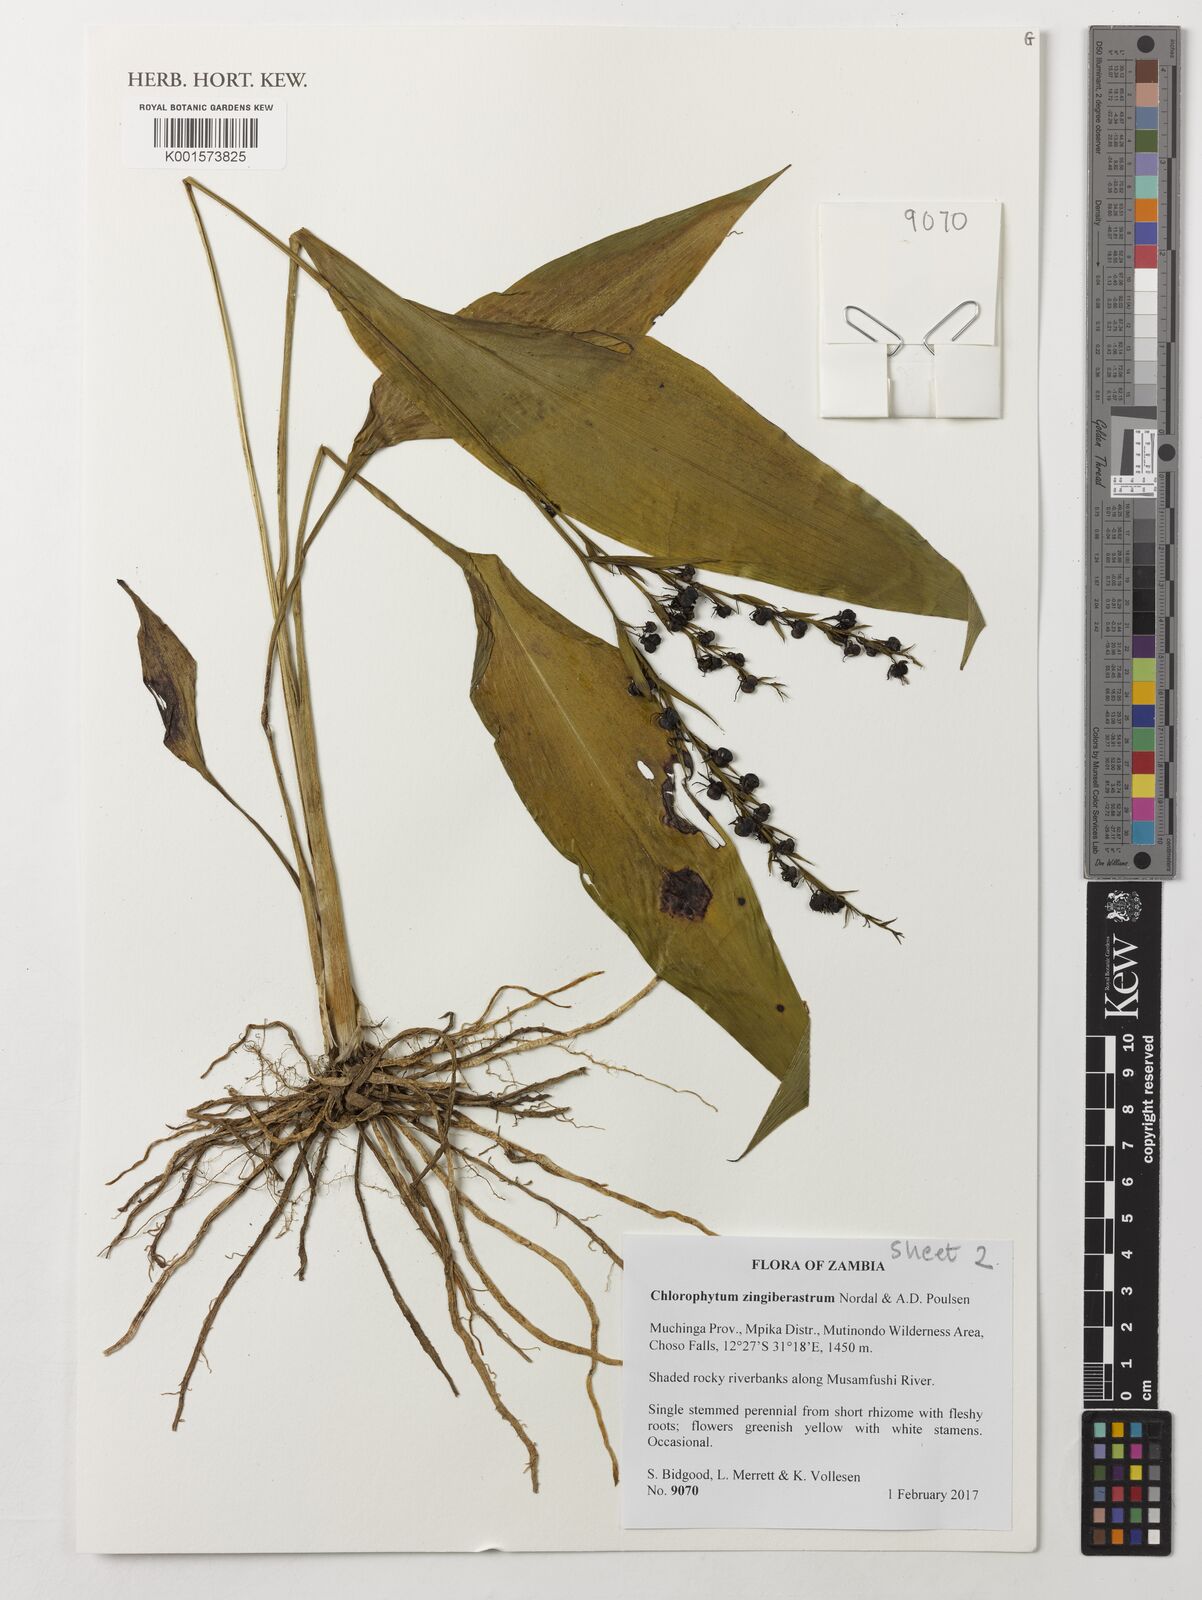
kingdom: Plantae
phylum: Tracheophyta
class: Liliopsida
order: Asparagales
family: Asparagaceae
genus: Chlorophytum
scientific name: Chlorophytum zingiberastrum
